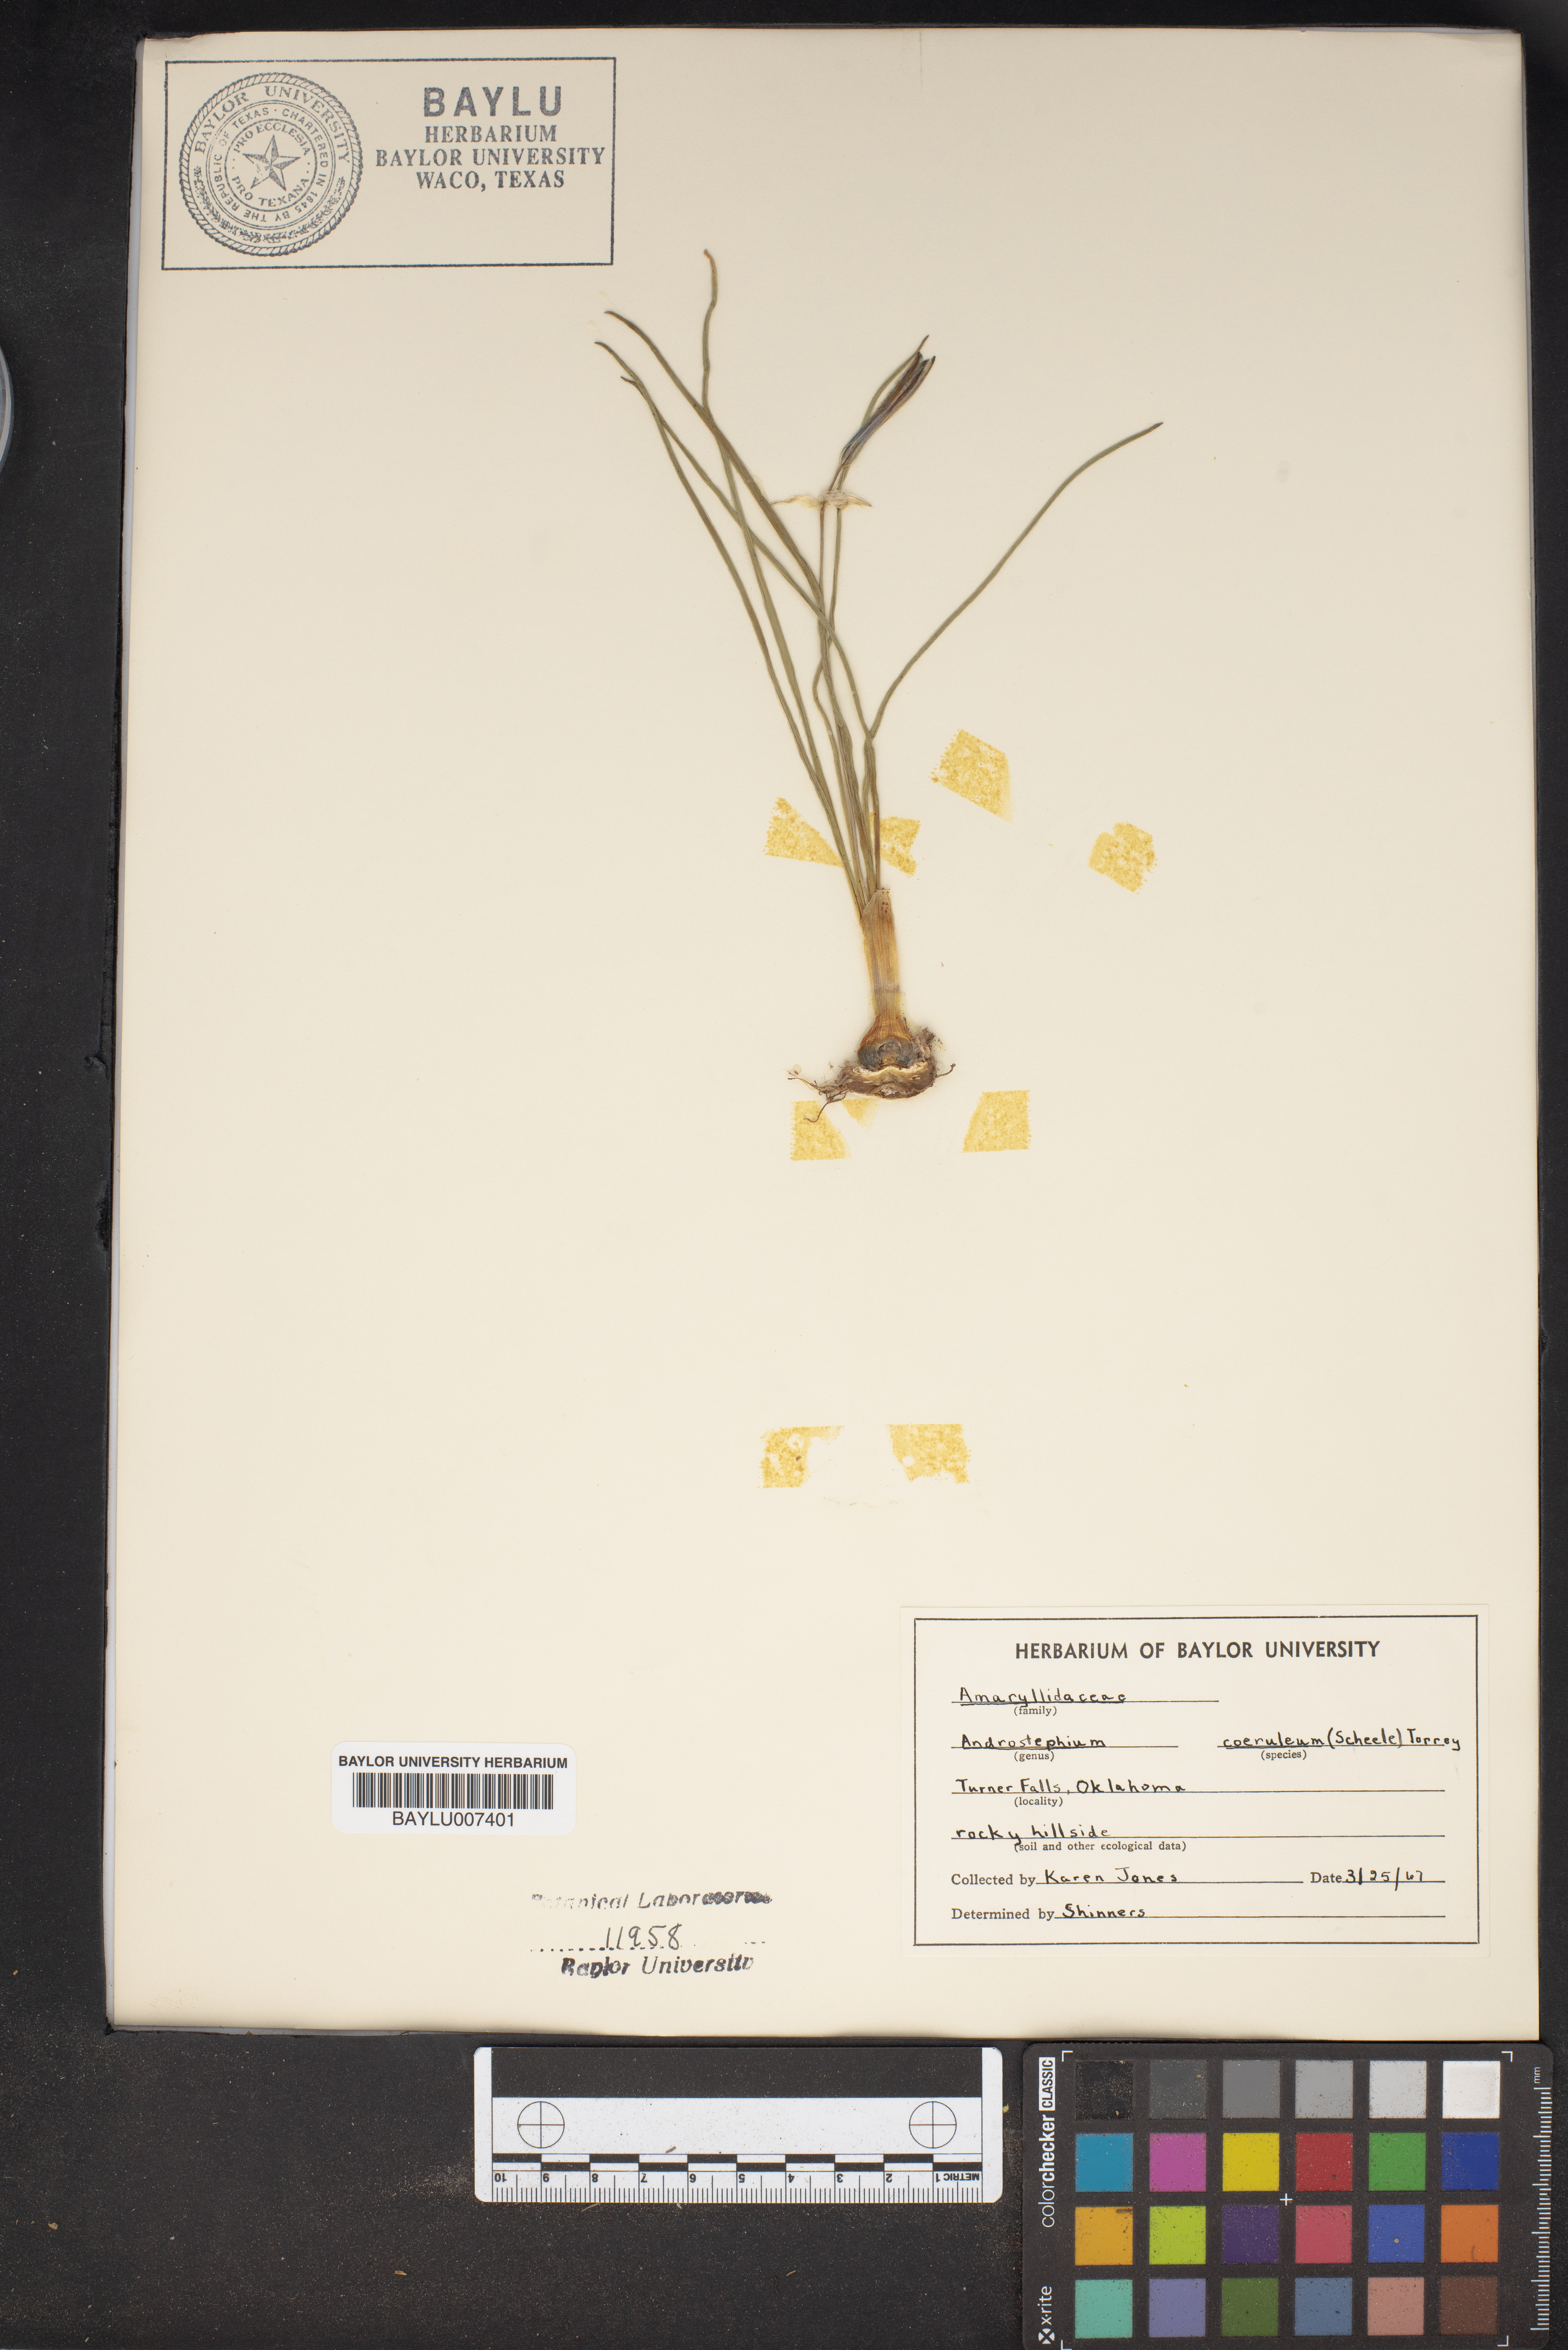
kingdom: Plantae
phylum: Tracheophyta
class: Liliopsida
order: Asparagales
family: Asparagaceae
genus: Androstephium
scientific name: Androstephium coeruleum
